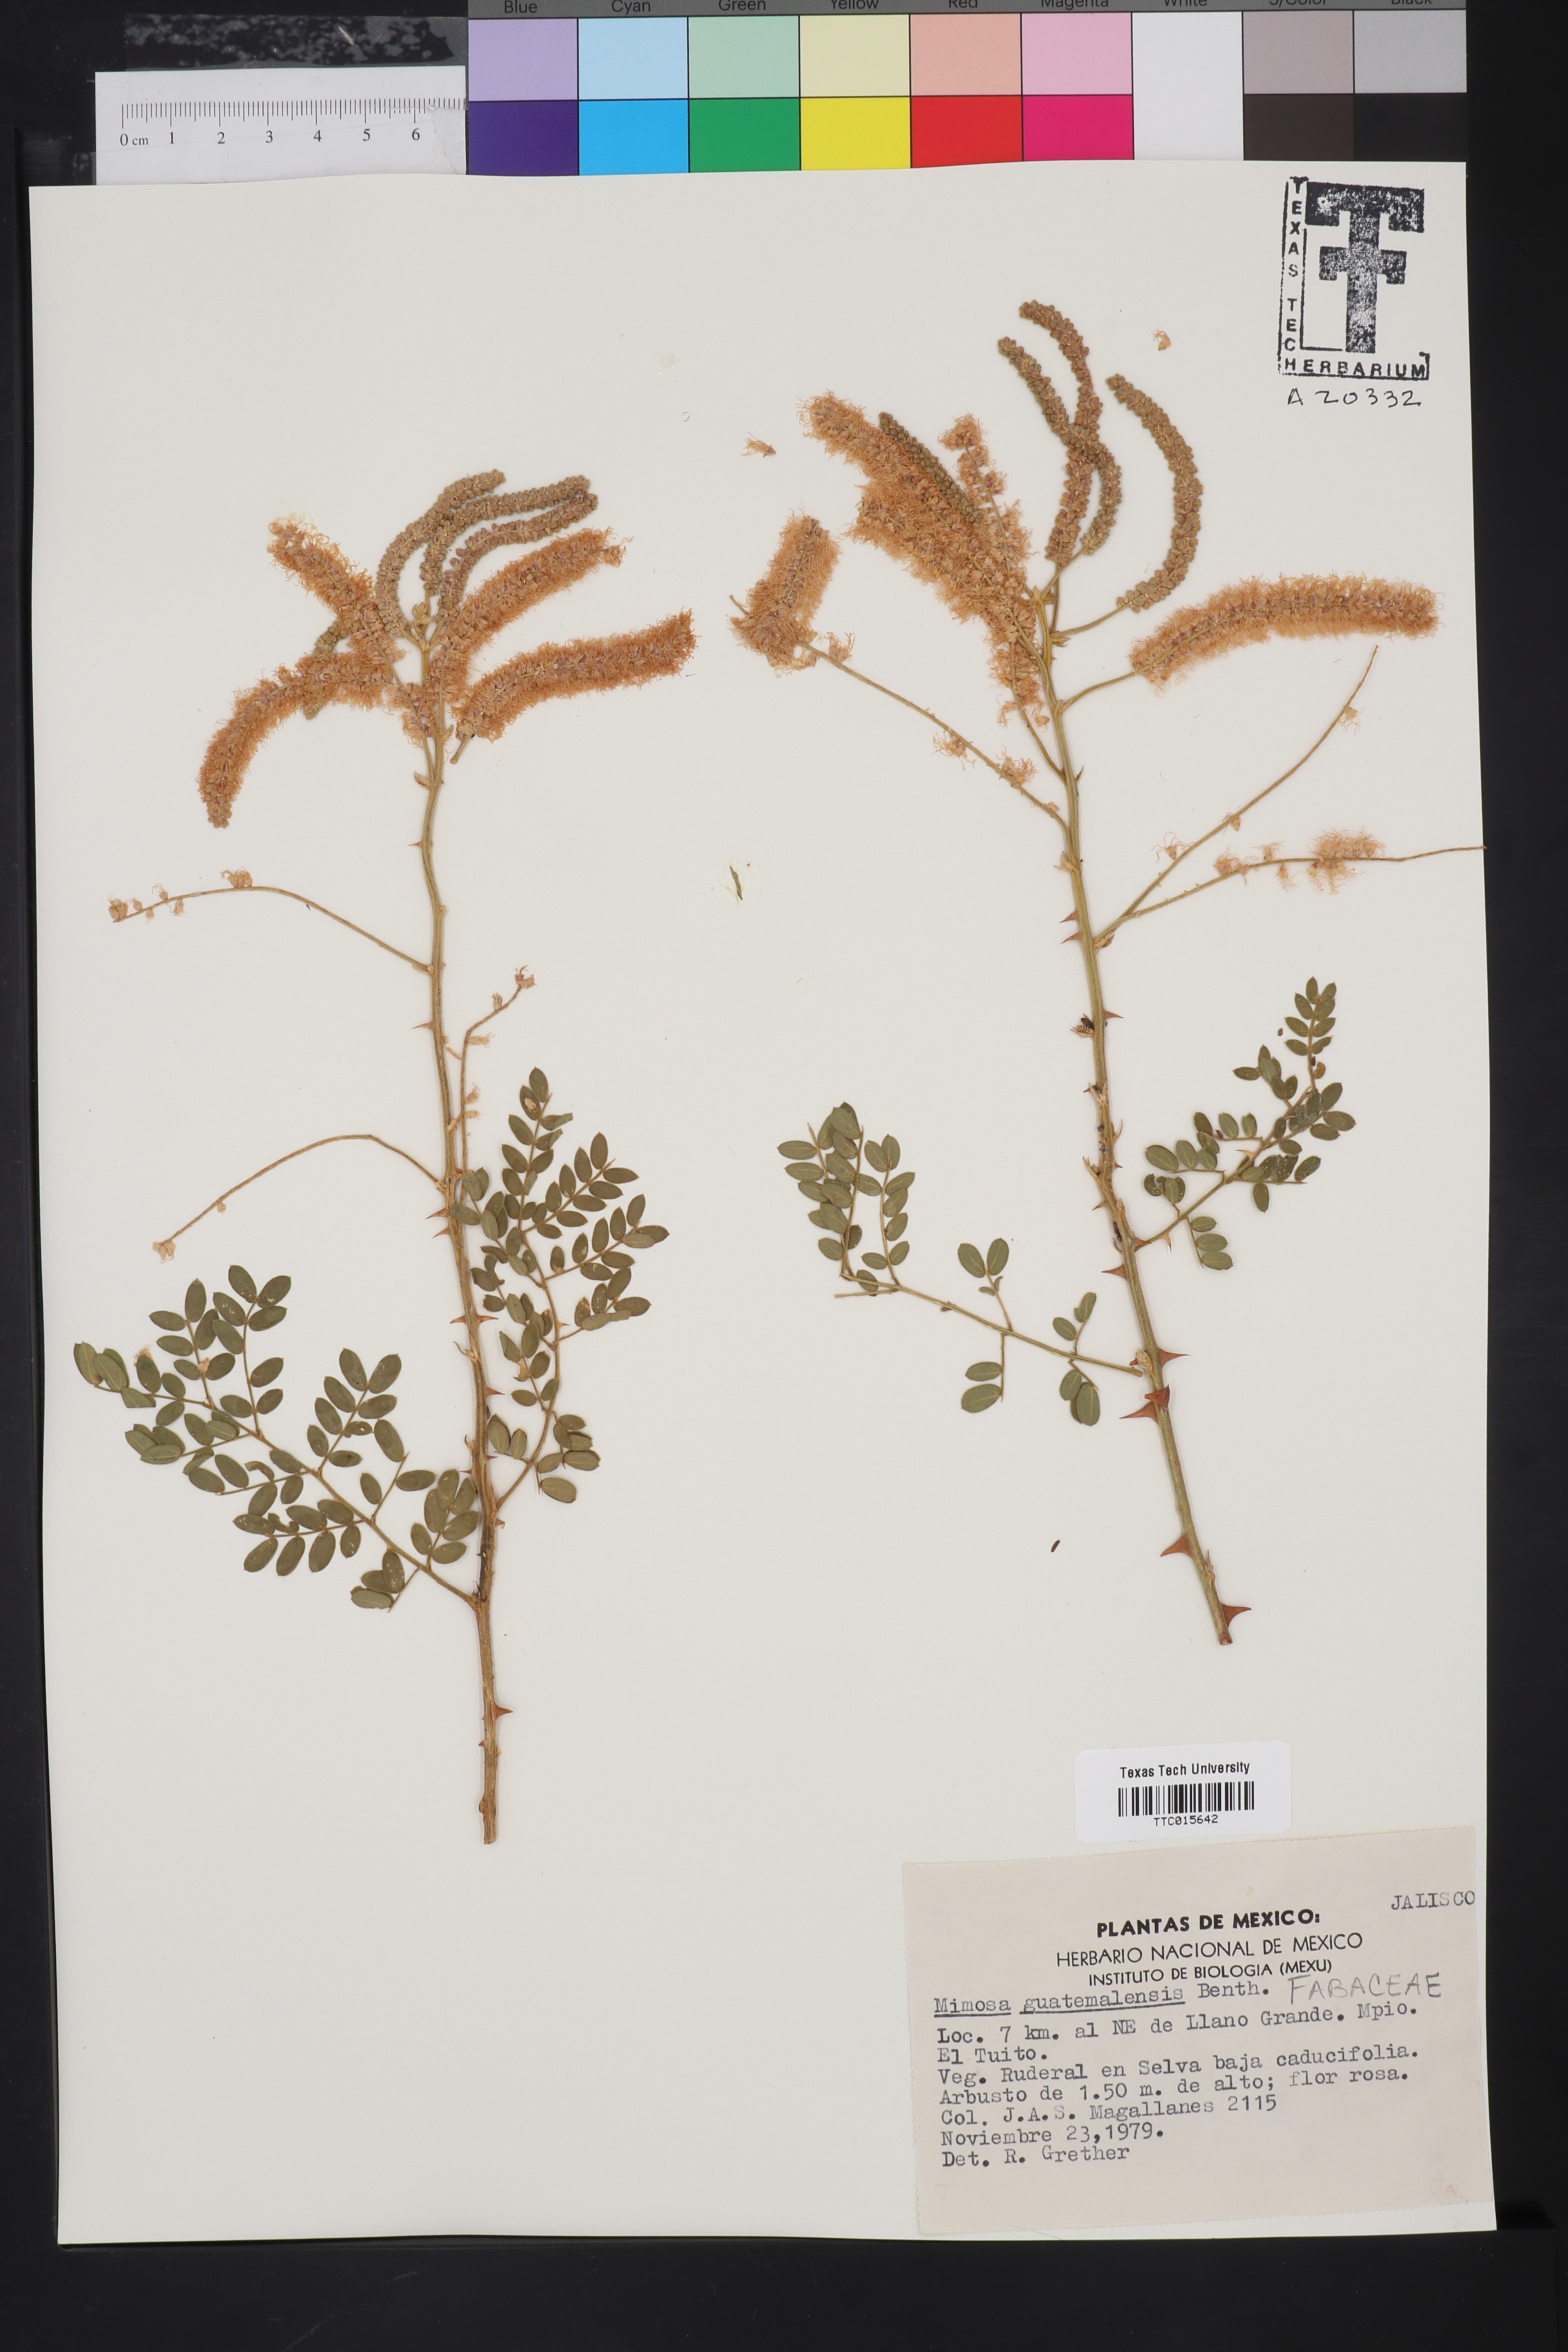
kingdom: Plantae
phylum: Tracheophyta
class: Magnoliopsida
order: Fabales
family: Fabaceae
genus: Mimosa
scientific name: Mimosa guatemalensis
